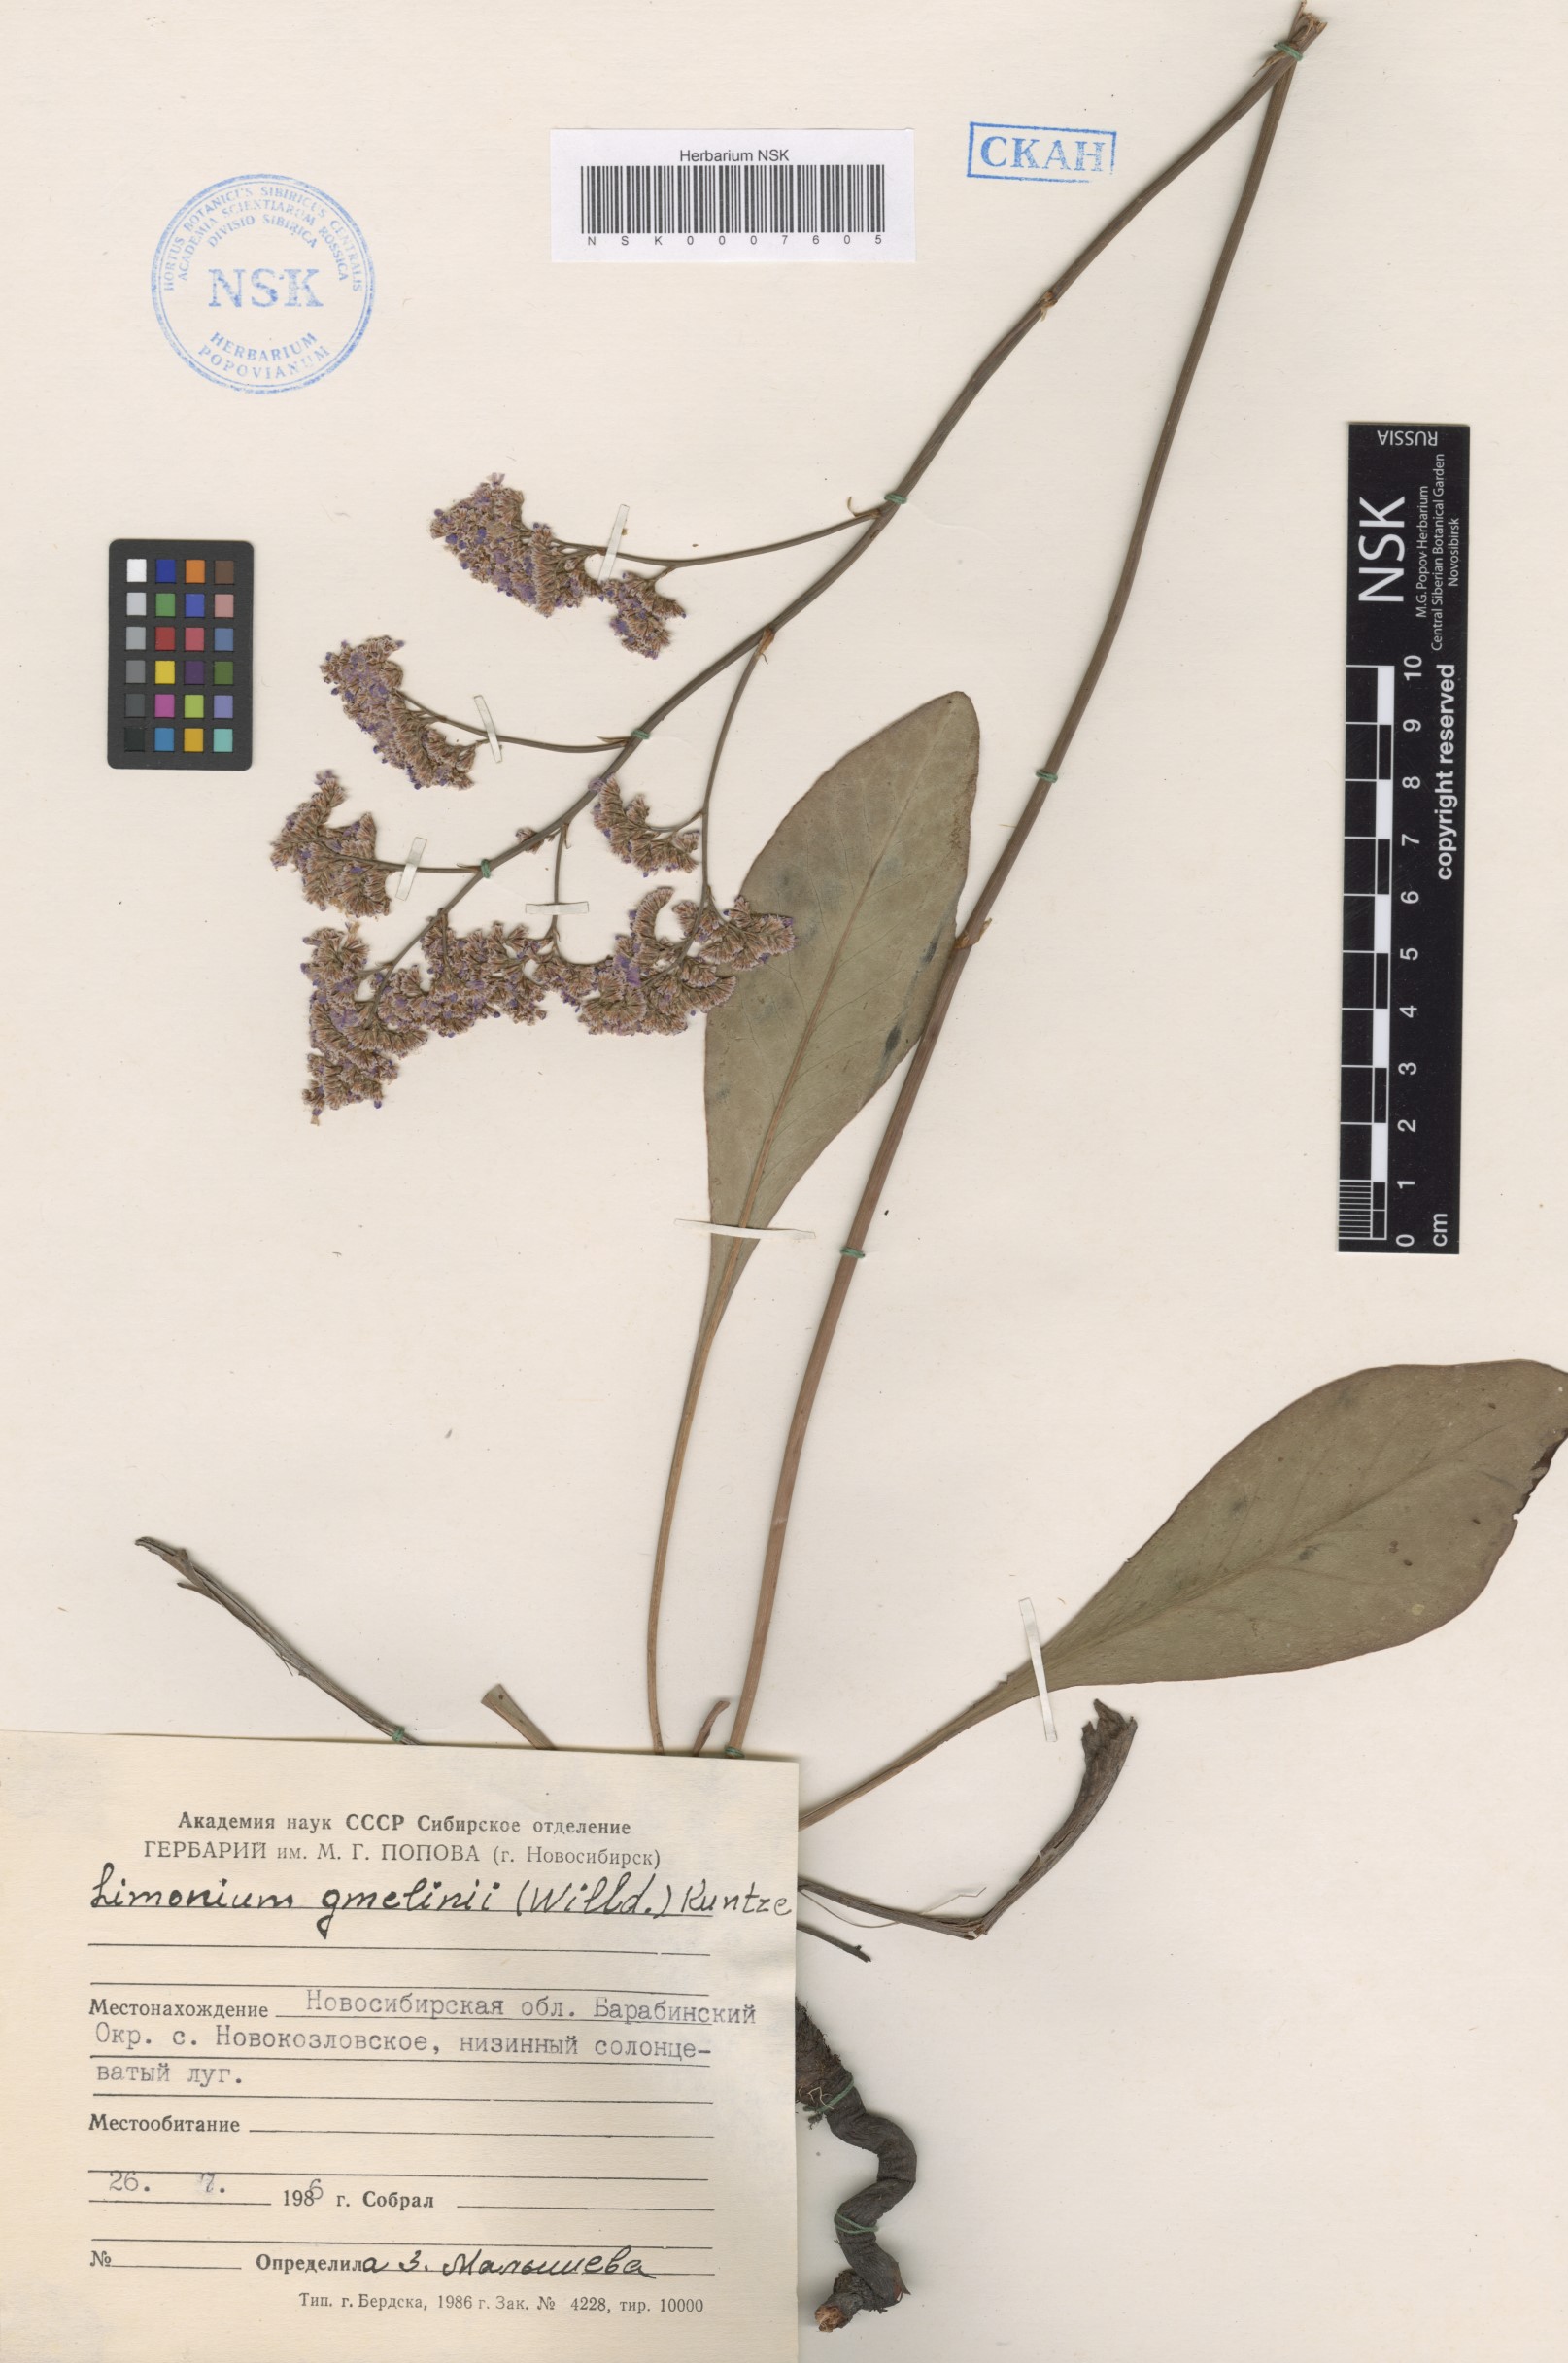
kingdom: Plantae
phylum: Tracheophyta
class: Magnoliopsida
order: Caryophyllales
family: Plumbaginaceae
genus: Limonium
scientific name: Limonium gmelini
